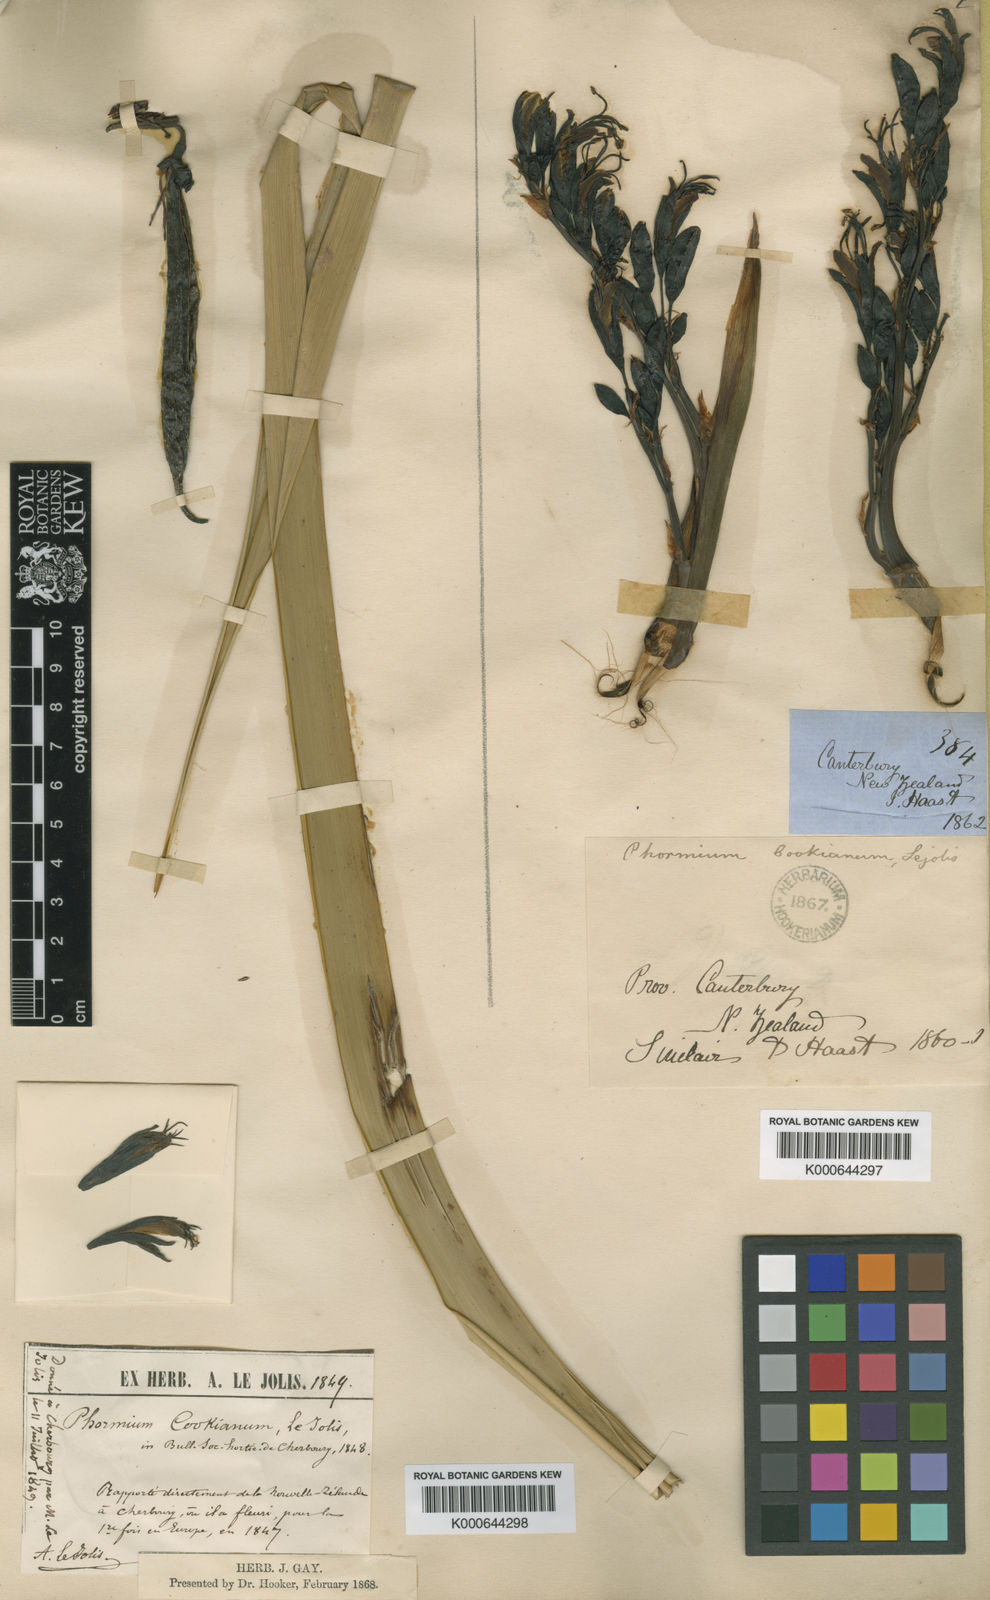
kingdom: Plantae
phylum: Tracheophyta
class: Liliopsida
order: Asparagales
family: Asphodelaceae
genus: Phormium
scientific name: Phormium colensoi
